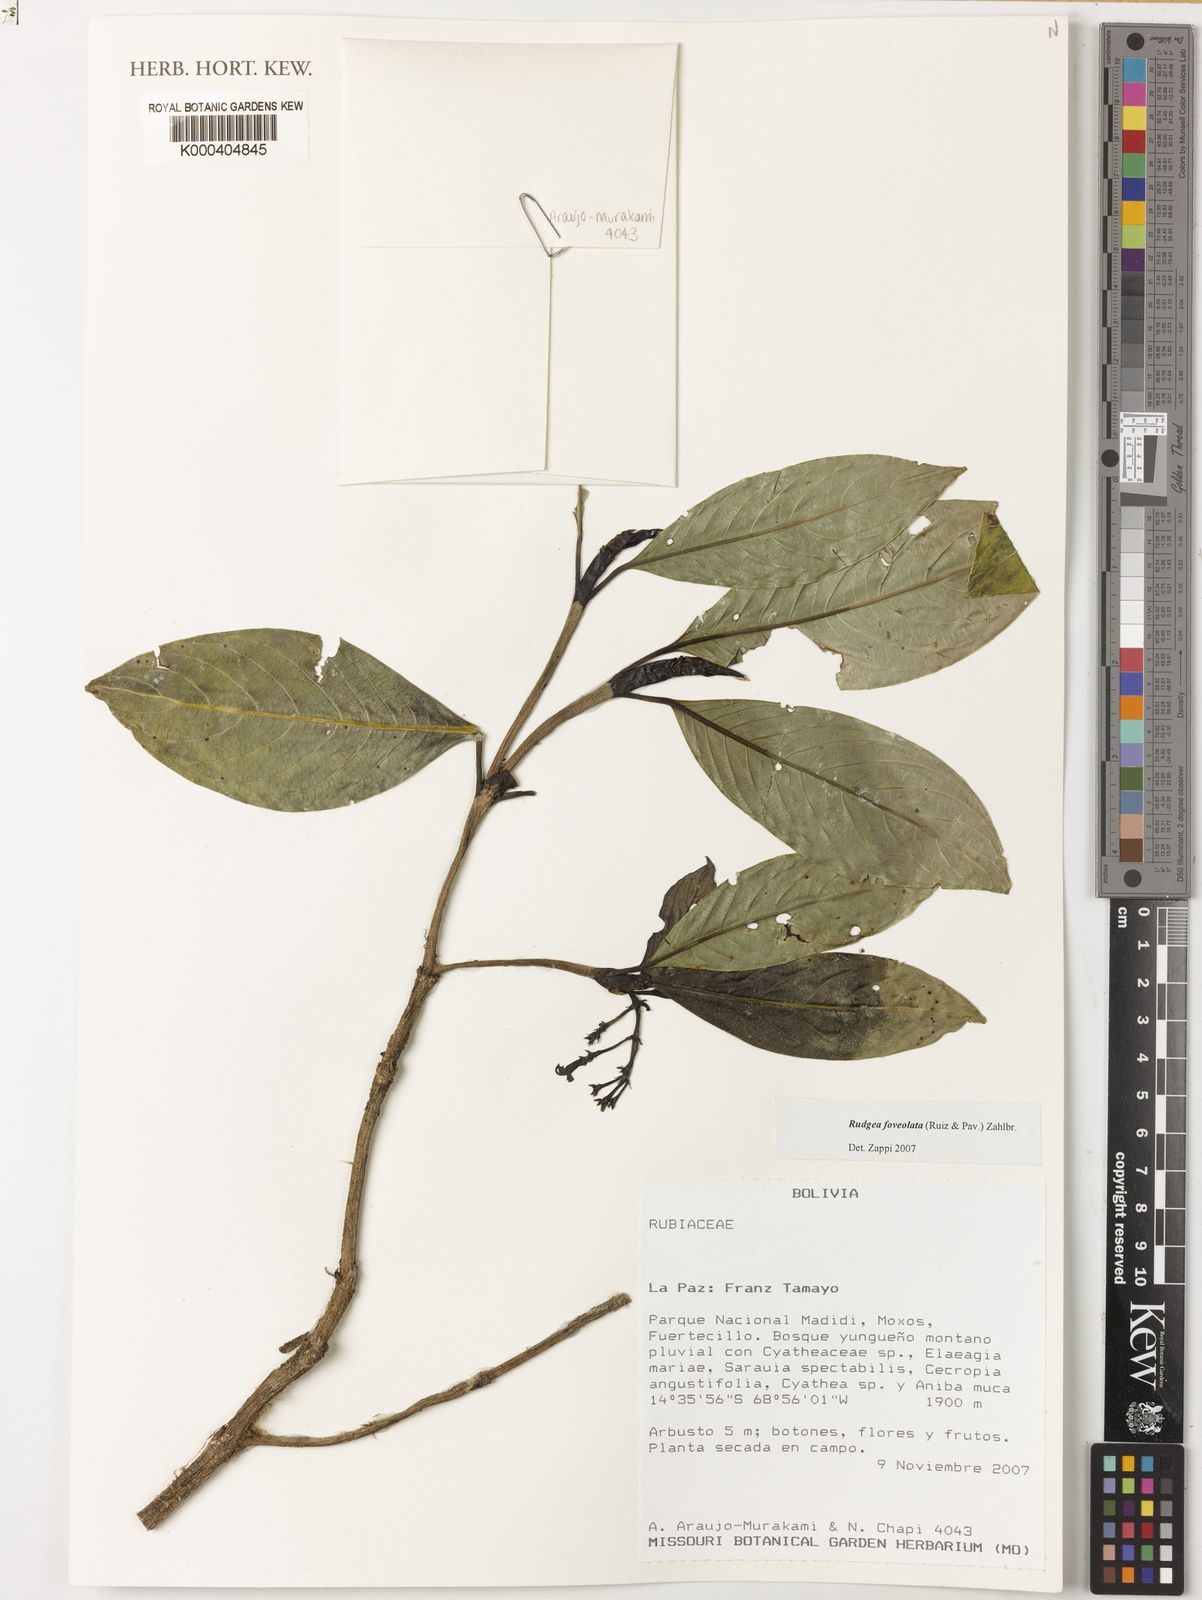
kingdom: Plantae
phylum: Tracheophyta
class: Magnoliopsida
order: Gentianales
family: Rubiaceae
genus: Rudgea
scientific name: Rudgea foveolata
